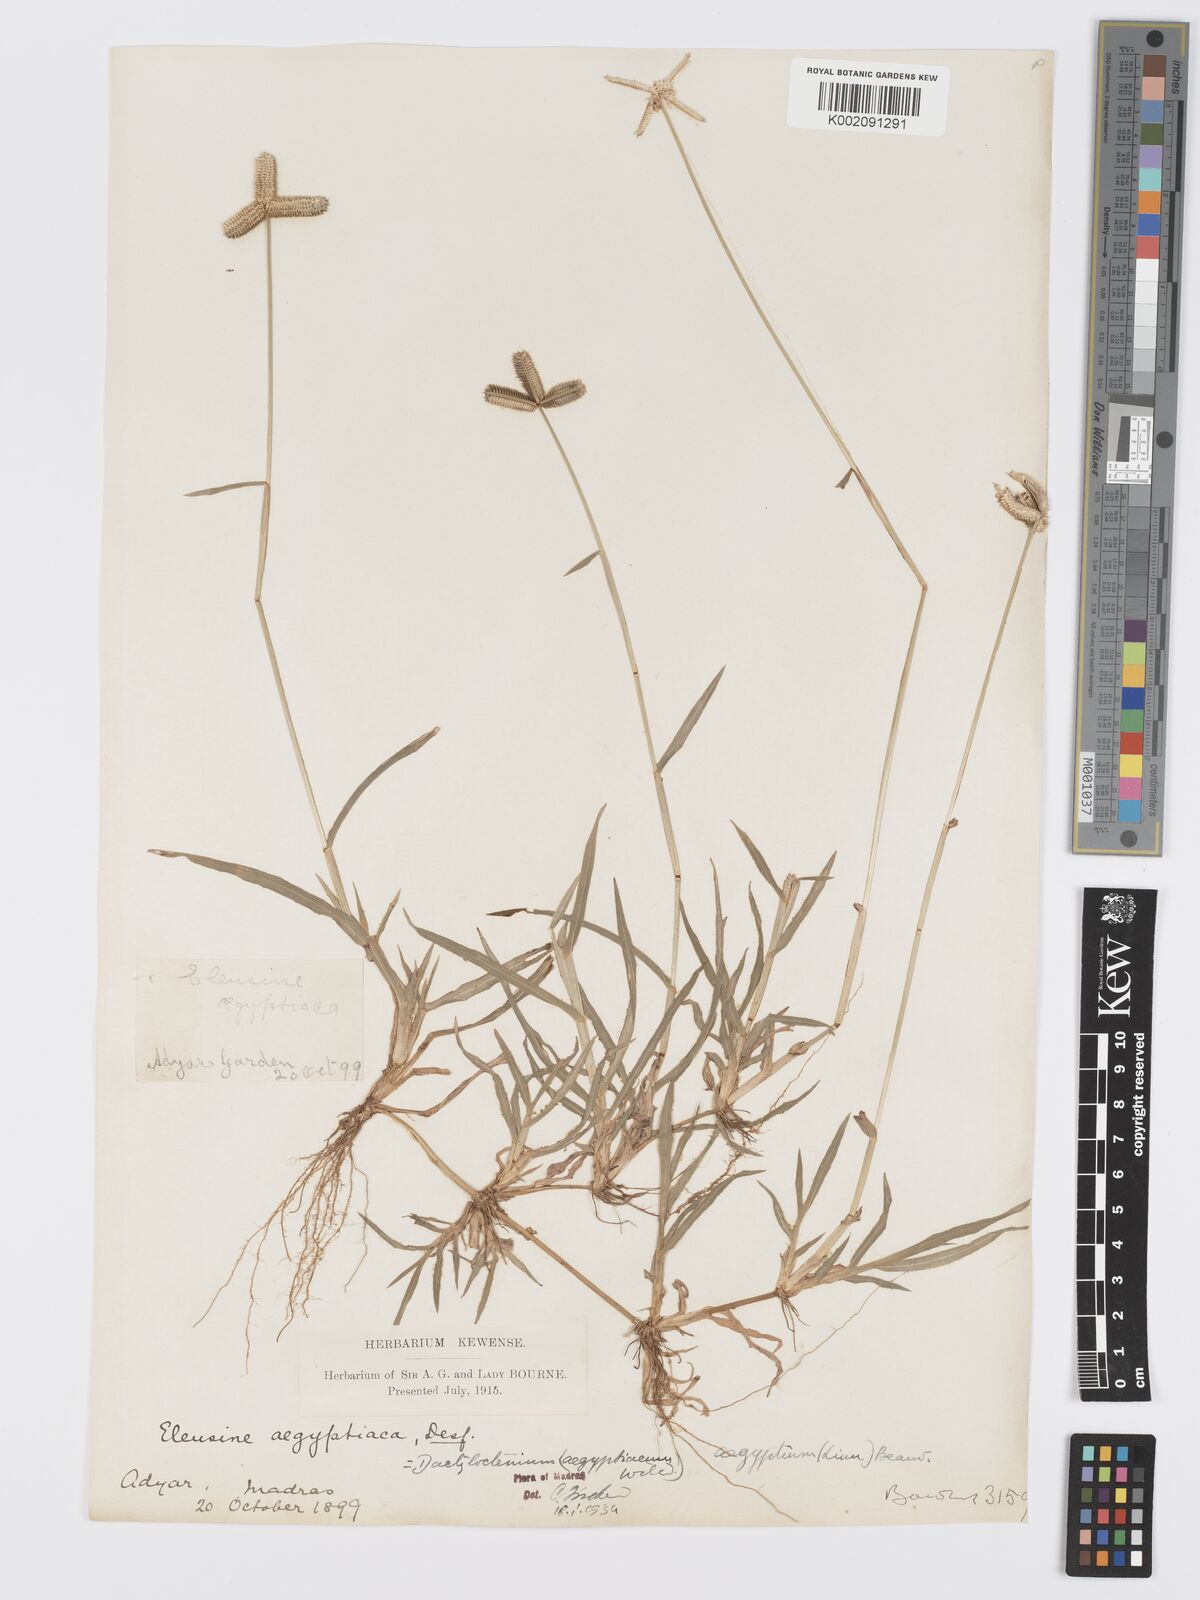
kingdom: Plantae
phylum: Tracheophyta
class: Liliopsida
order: Poales
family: Poaceae
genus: Dactyloctenium
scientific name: Dactyloctenium aegyptium
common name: Egyptian grass
